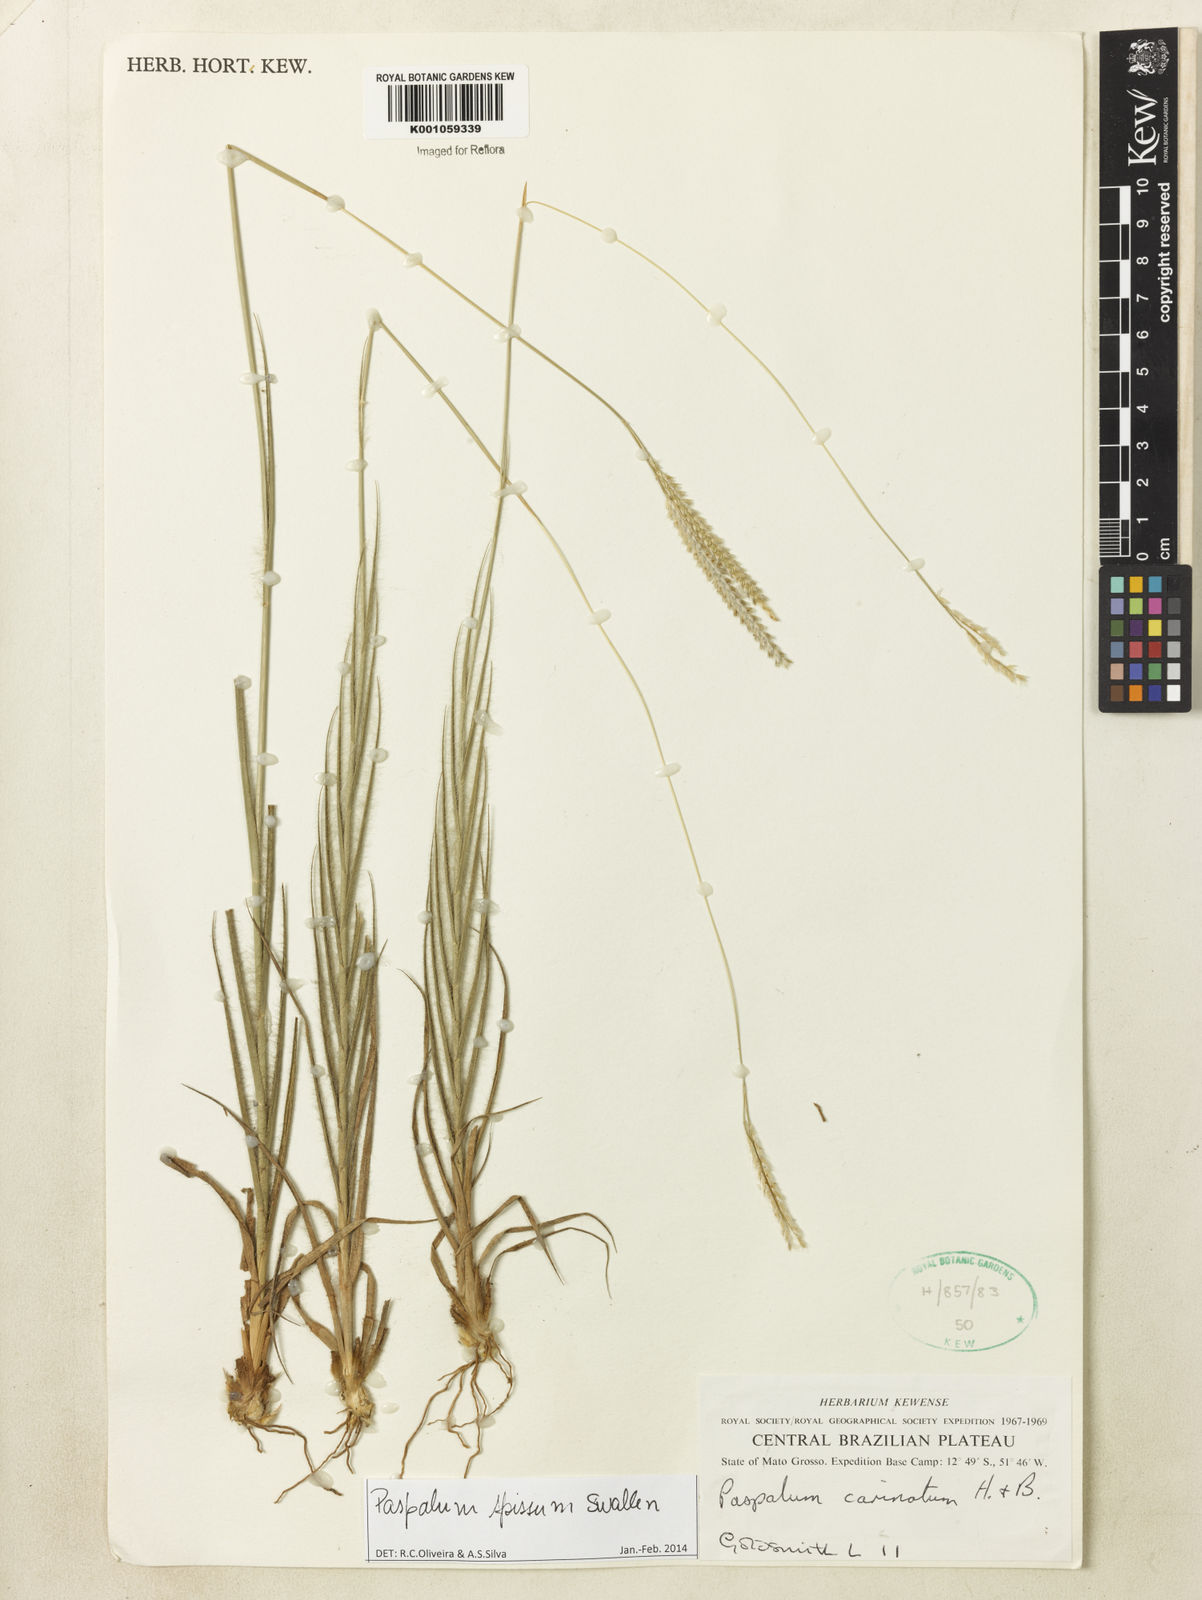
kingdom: Plantae
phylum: Tracheophyta
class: Liliopsida
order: Poales
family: Poaceae
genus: Paspalum
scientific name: Paspalum carinatum
